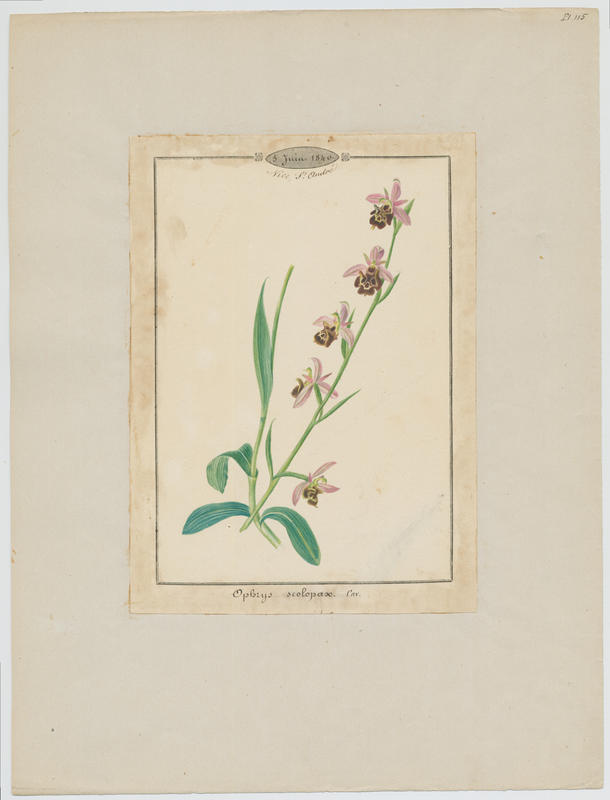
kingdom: Plantae
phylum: Tracheophyta
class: Liliopsida
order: Asparagales
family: Orchidaceae
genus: Ophrys
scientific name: Ophrys scolopax
